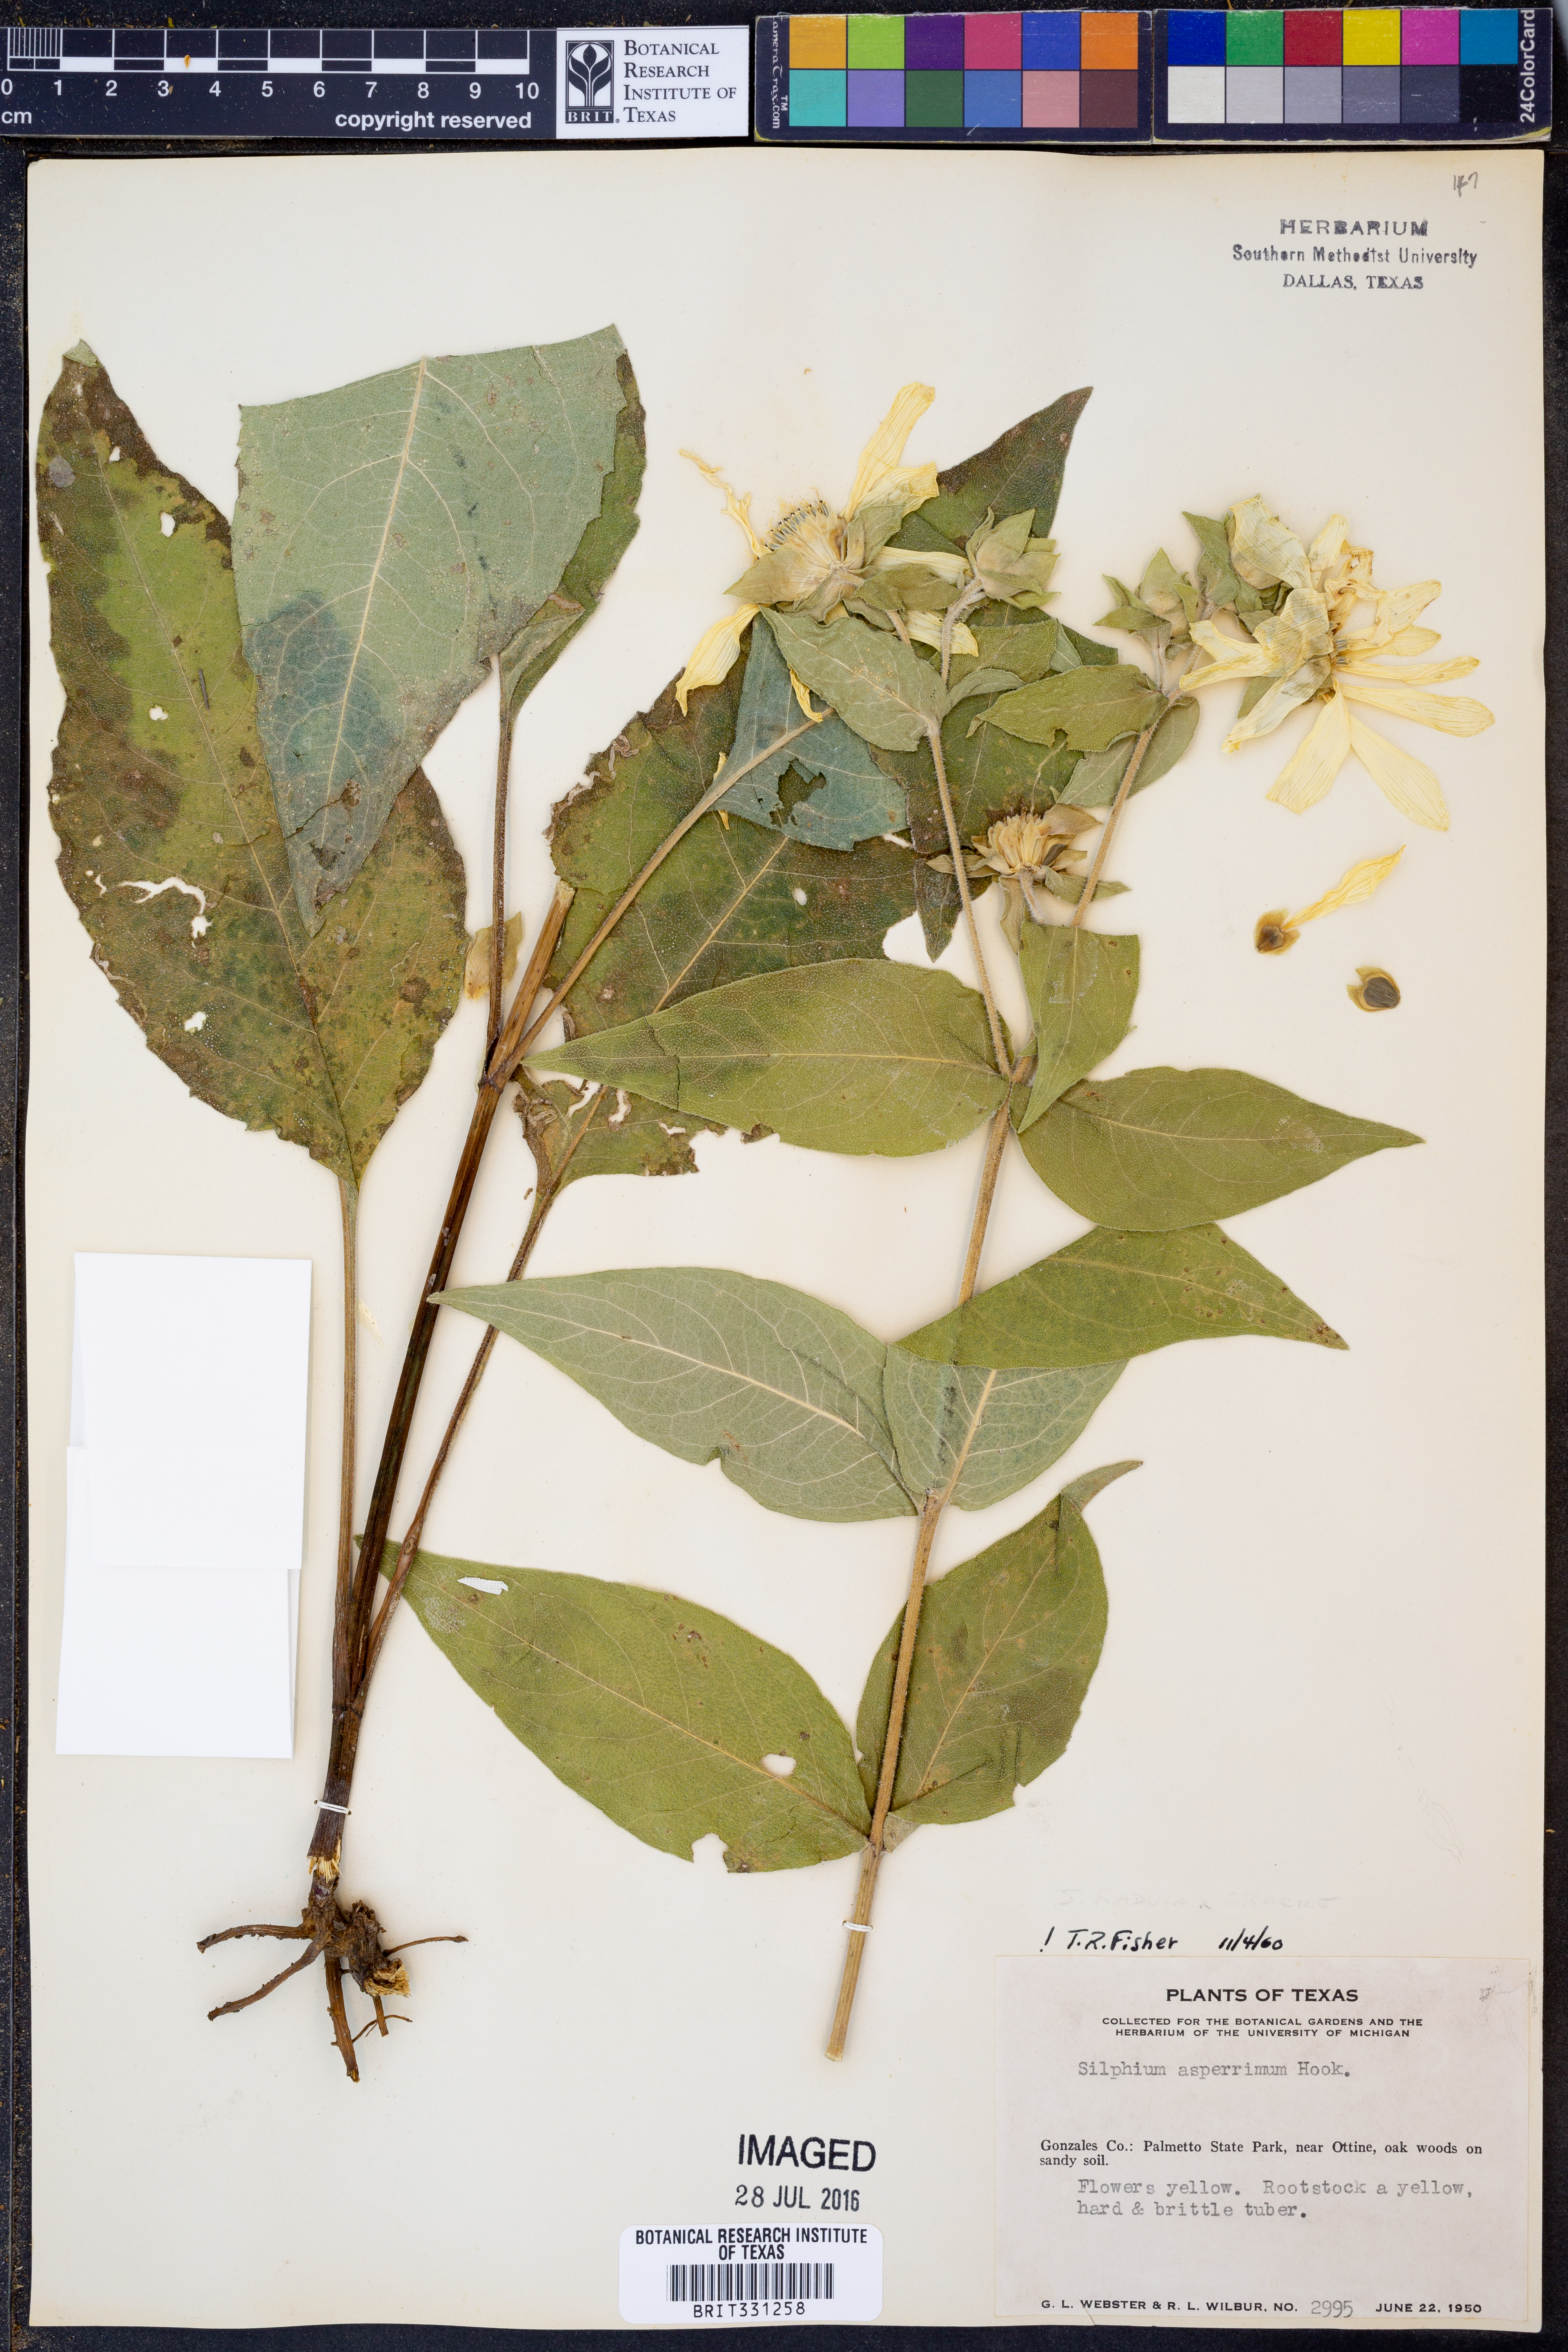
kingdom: Plantae
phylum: Tracheophyta
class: Magnoliopsida
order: Asterales
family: Asteraceae
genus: Silphium
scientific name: Silphium asperrimum
